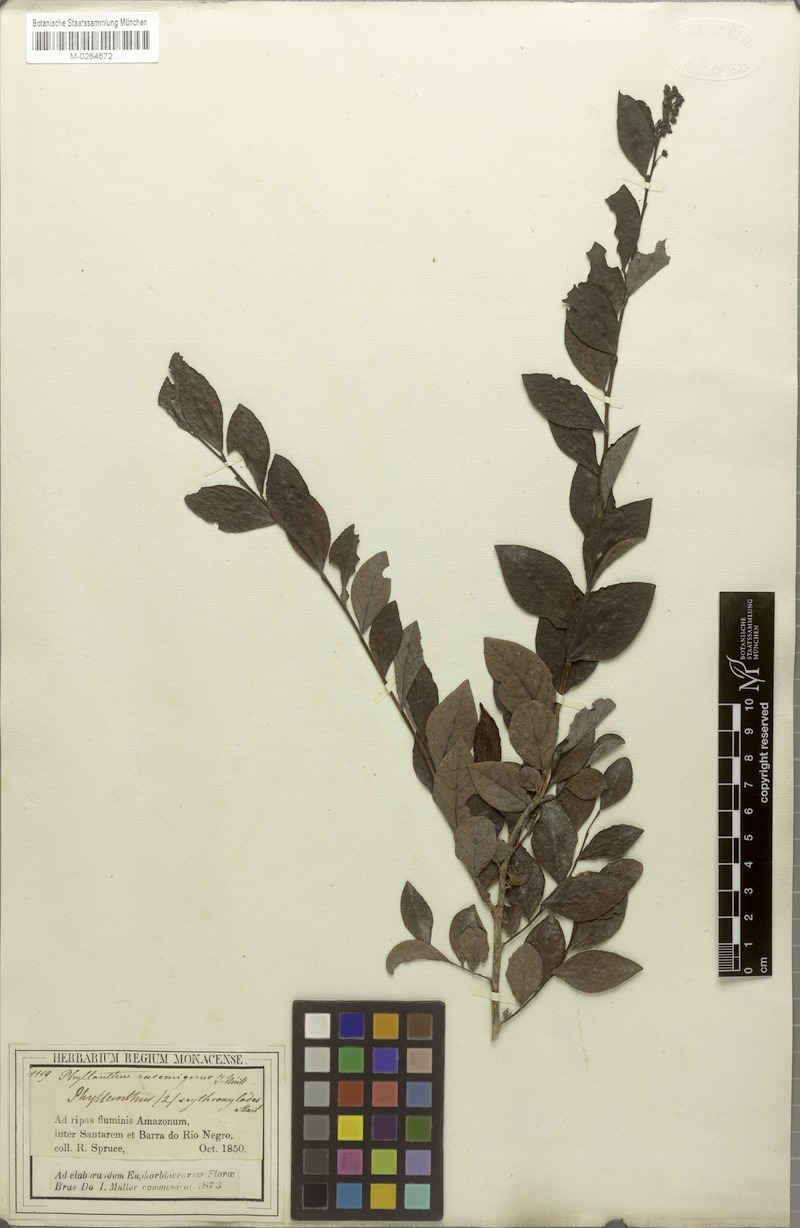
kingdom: Plantae
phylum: Tracheophyta
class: Magnoliopsida
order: Malpighiales
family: Phyllanthaceae
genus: Phyllanthus
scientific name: Phyllanthus racemiger
